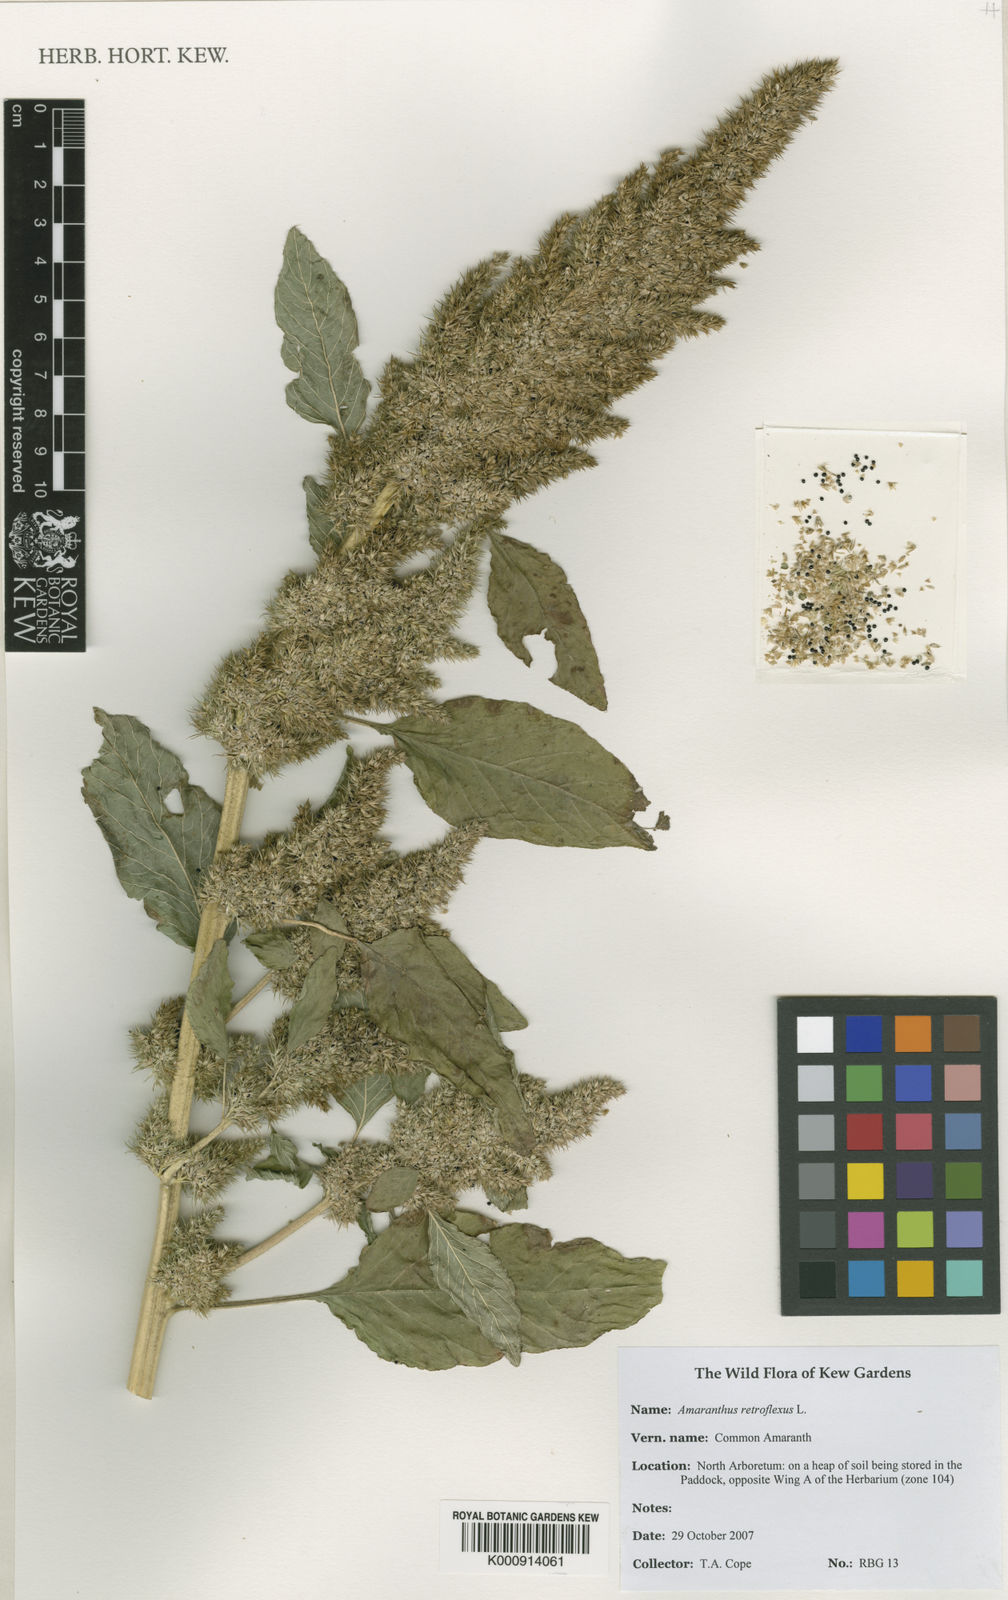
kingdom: Plantae
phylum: Tracheophyta
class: Magnoliopsida
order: Caryophyllales
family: Amaranthaceae
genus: Amaranthus
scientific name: Amaranthus retroflexus
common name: Redroot amaranth
